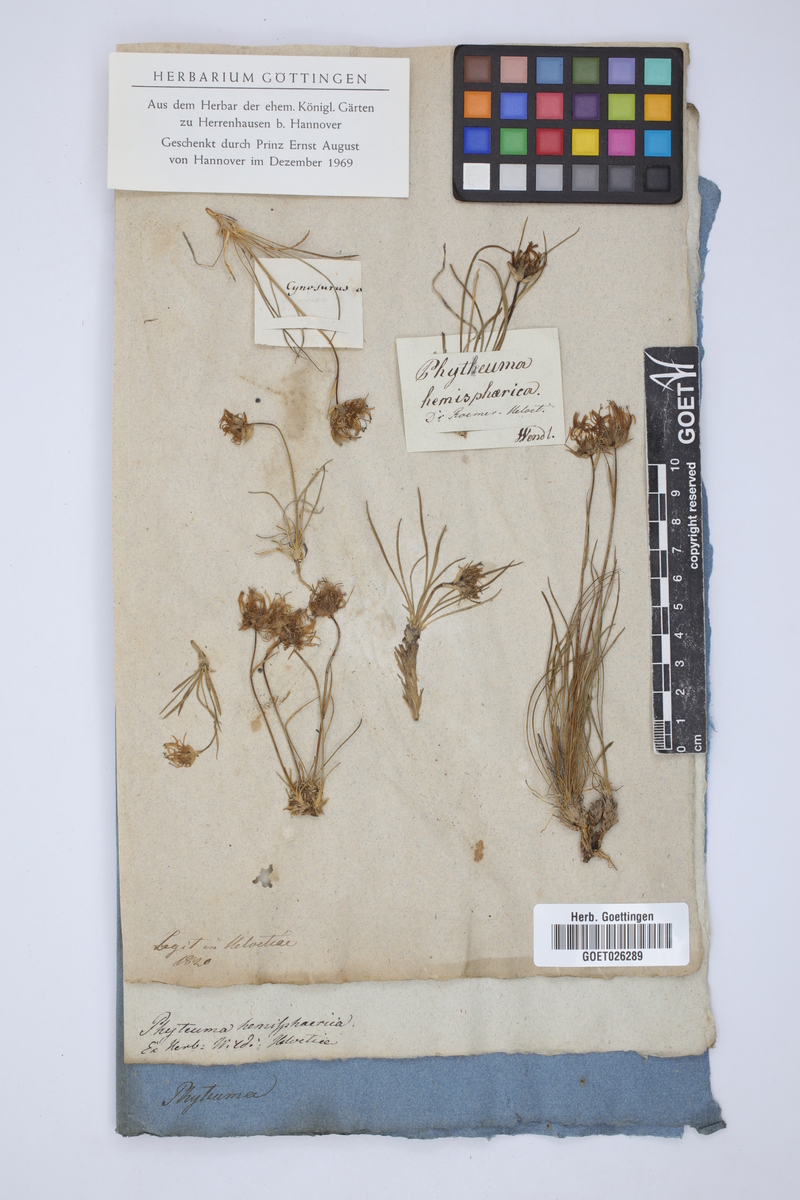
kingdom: Plantae
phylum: Tracheophyta
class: Magnoliopsida
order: Asterales
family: Campanulaceae
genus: Phyteuma
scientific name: Phyteuma hemisphaericum
